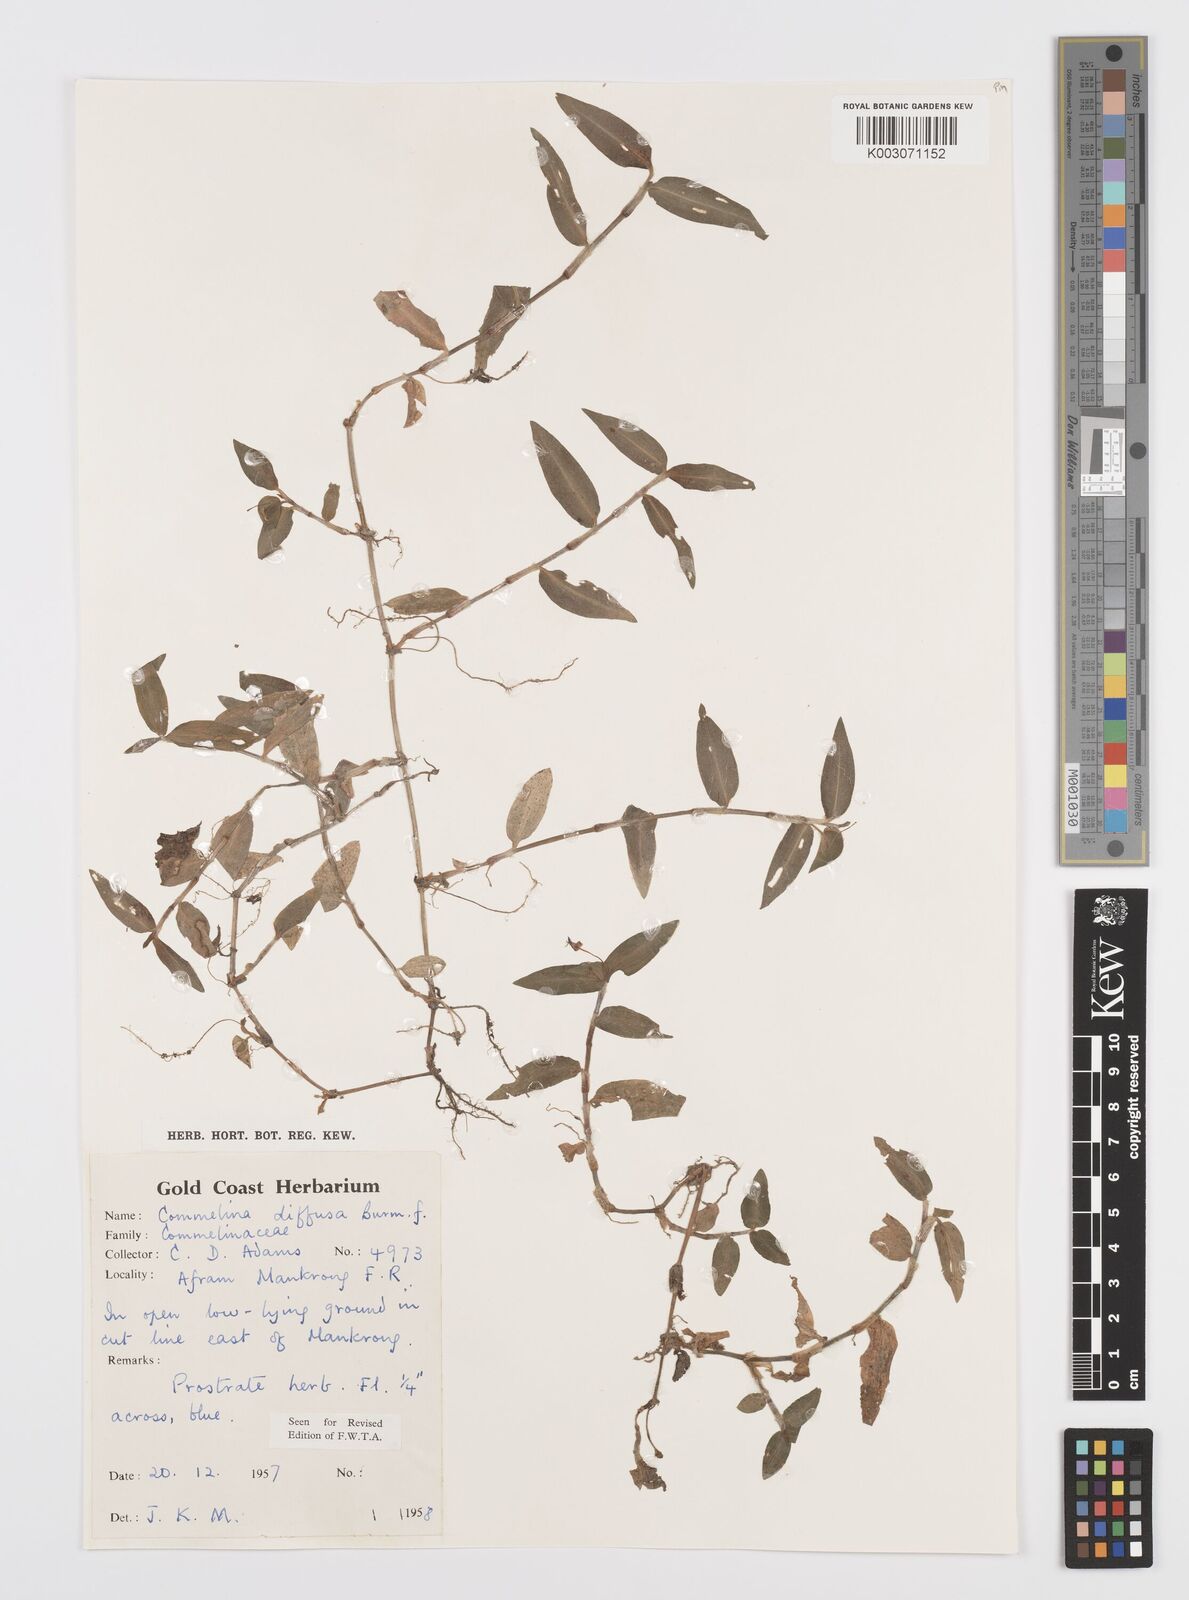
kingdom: Plantae
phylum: Tracheophyta
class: Liliopsida
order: Commelinales
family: Commelinaceae
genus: Commelina
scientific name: Commelina diffusa
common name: Climbing dayflower
